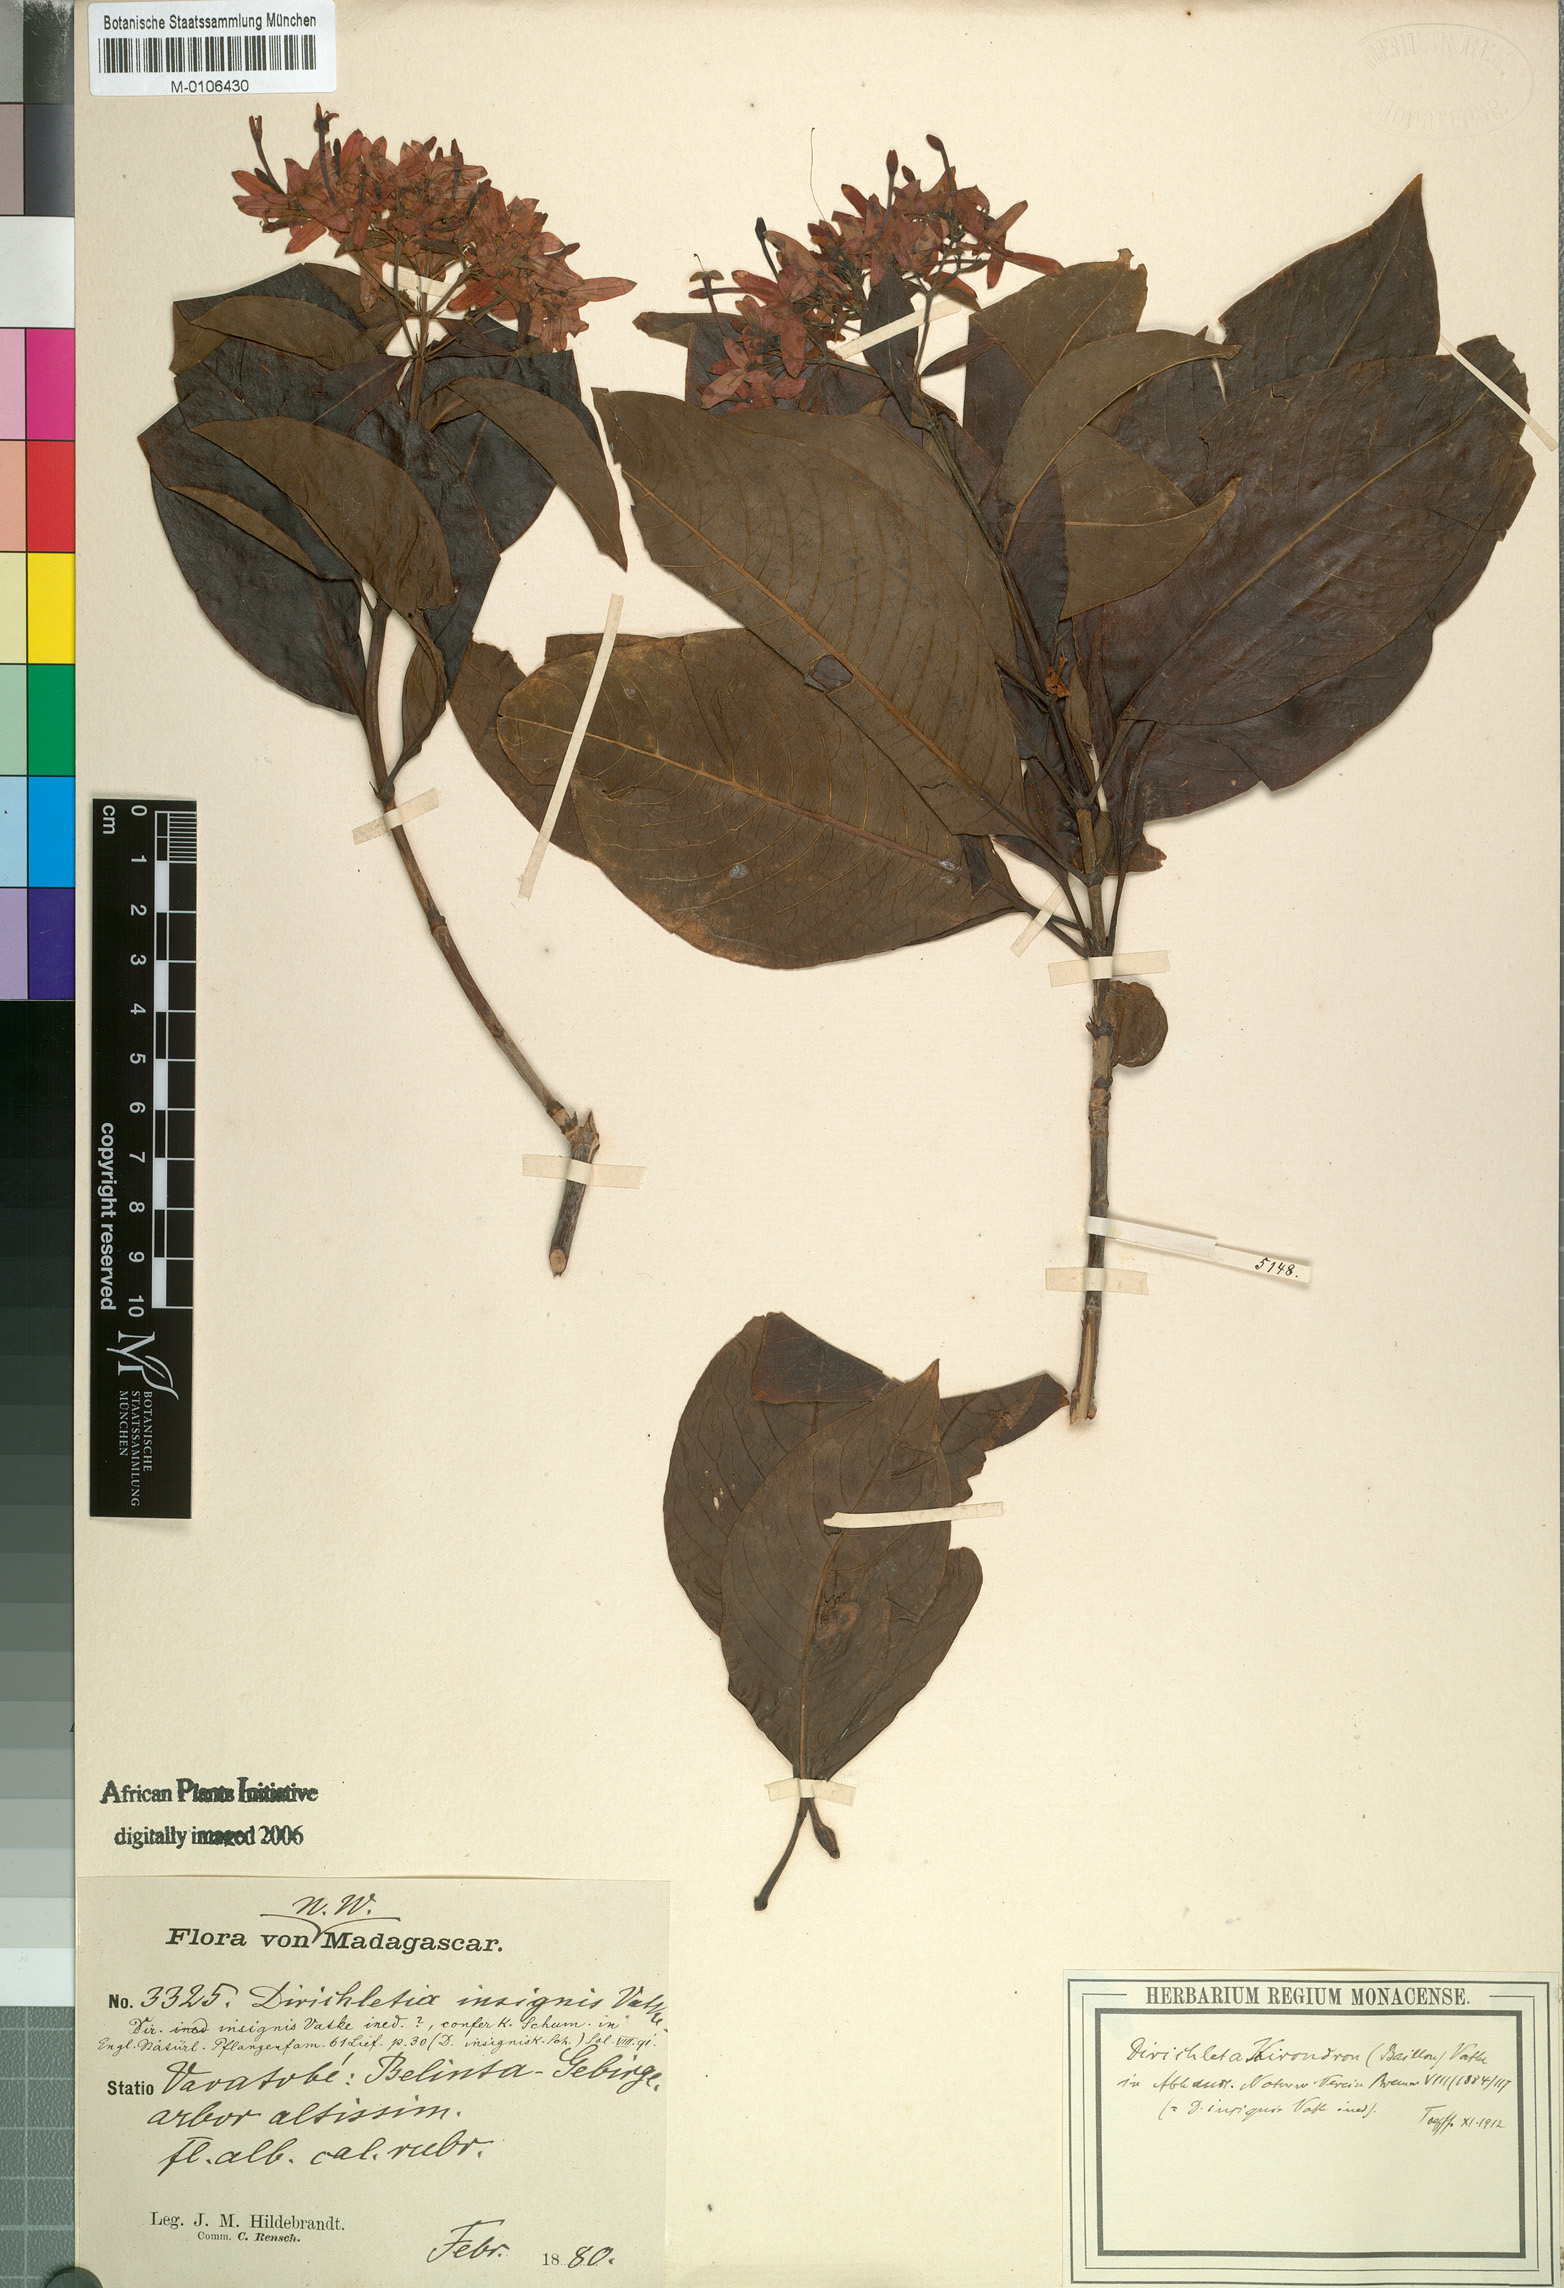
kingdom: Plantae
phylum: Tracheophyta
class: Magnoliopsida
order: Gentianales
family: Rubiaceae
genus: Paracarphalea
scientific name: Paracarphalea kirondron
